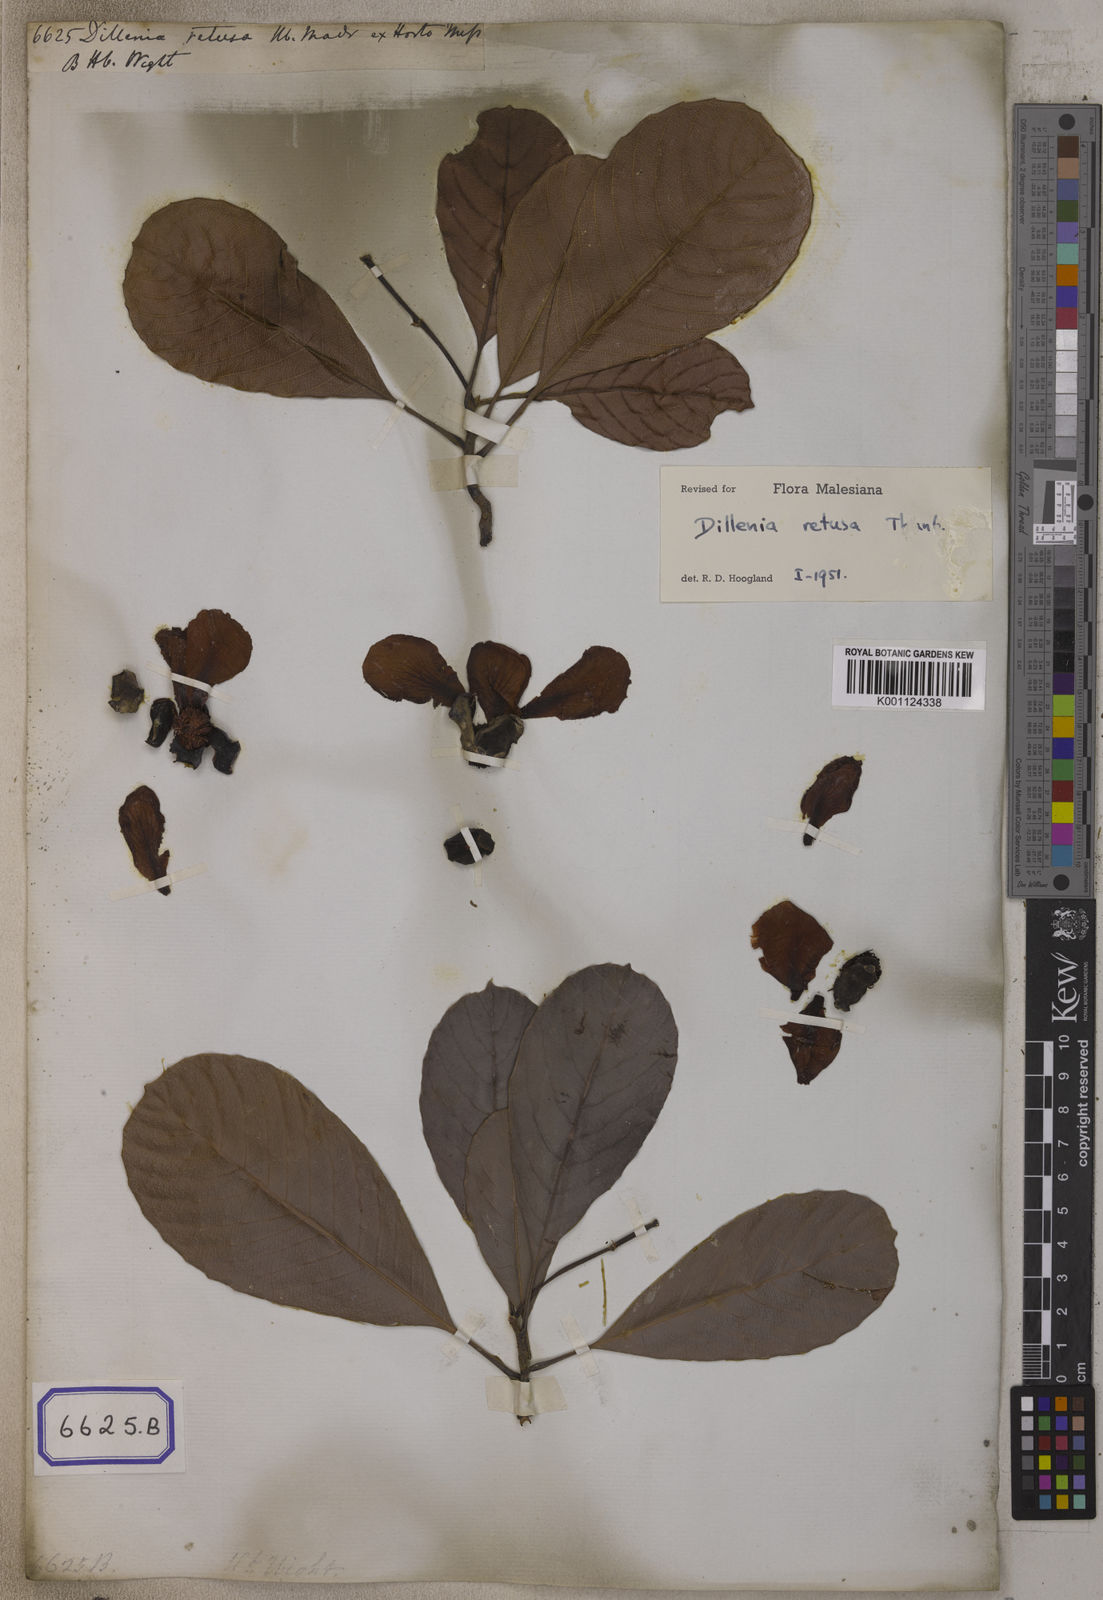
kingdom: Plantae
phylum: Tracheophyta
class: Magnoliopsida
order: Dilleniales
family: Dilleniaceae
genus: Dillenia
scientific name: Dillenia retusa
